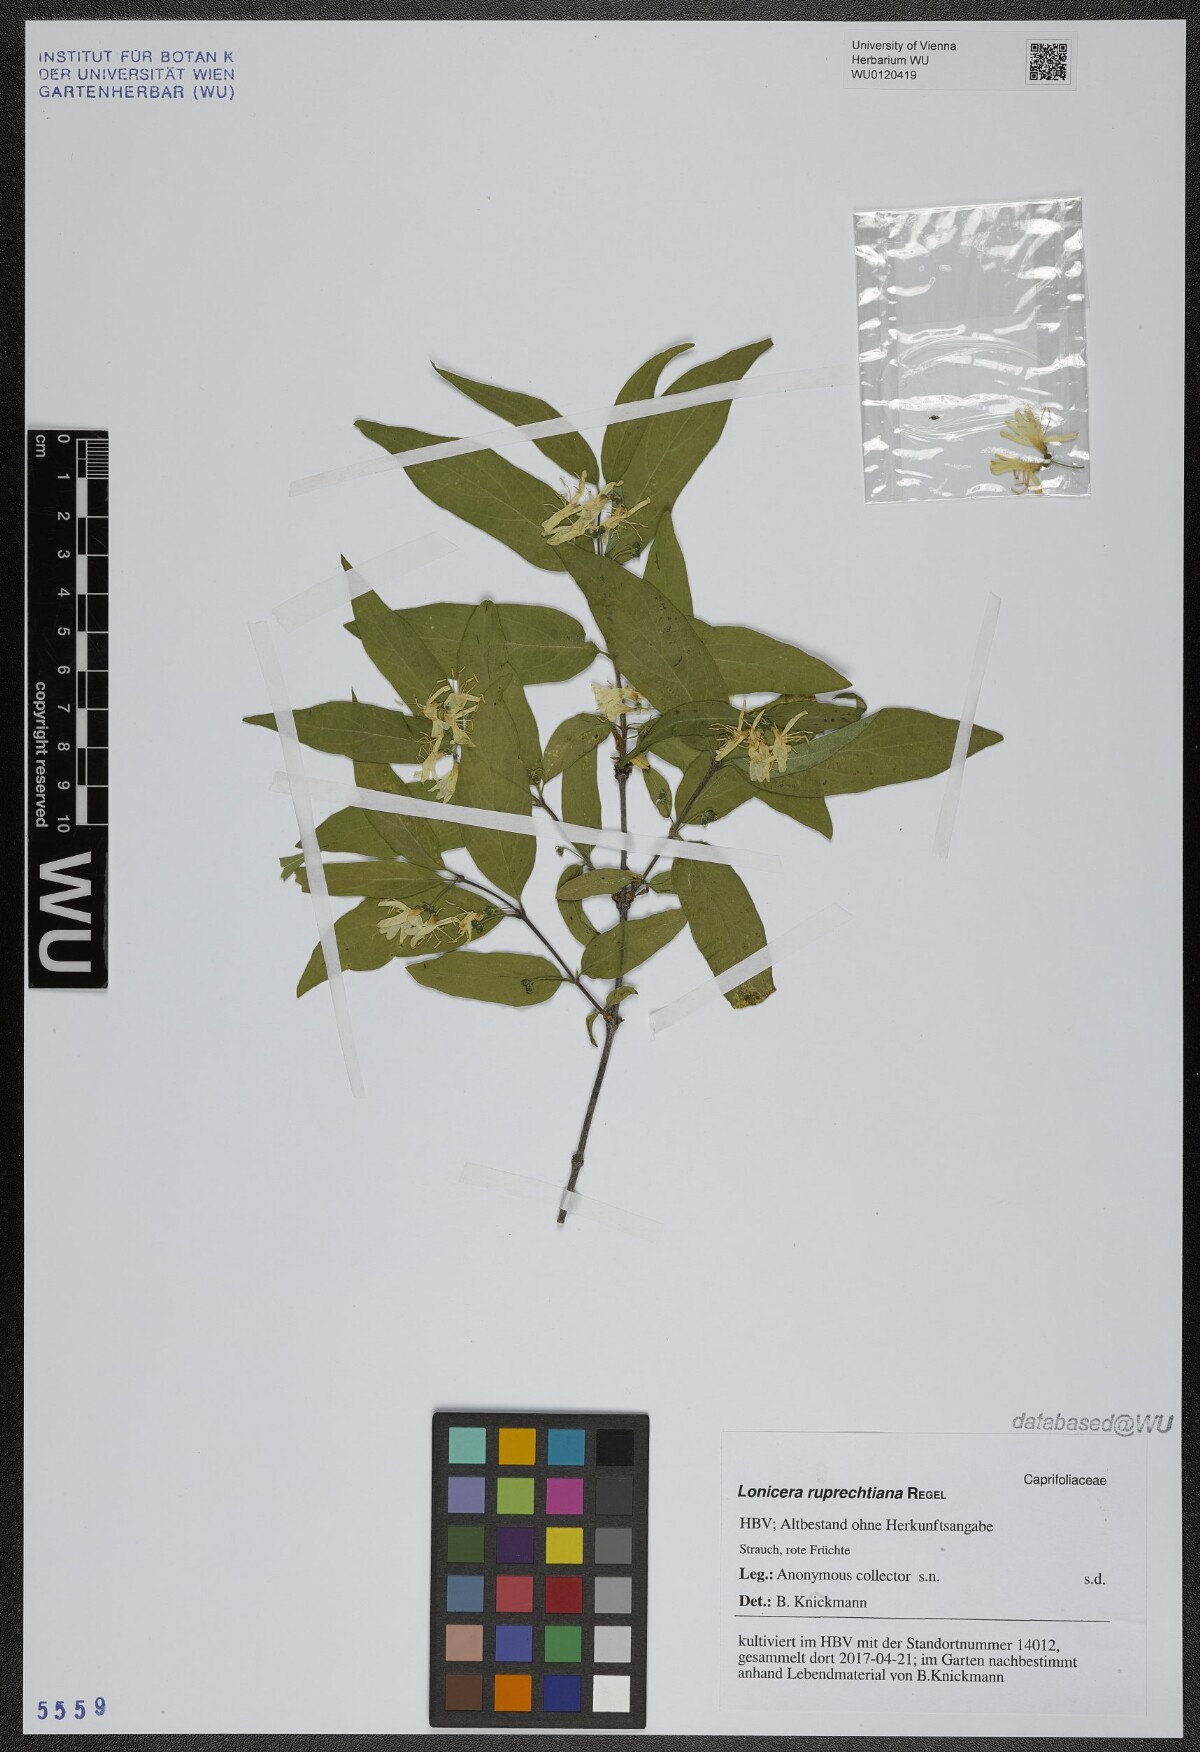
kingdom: Plantae
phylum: Tracheophyta
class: Magnoliopsida
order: Dipsacales
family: Caprifoliaceae
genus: Lonicera
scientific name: Lonicera ruprechtiana
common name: Manchurian honeysuckle
